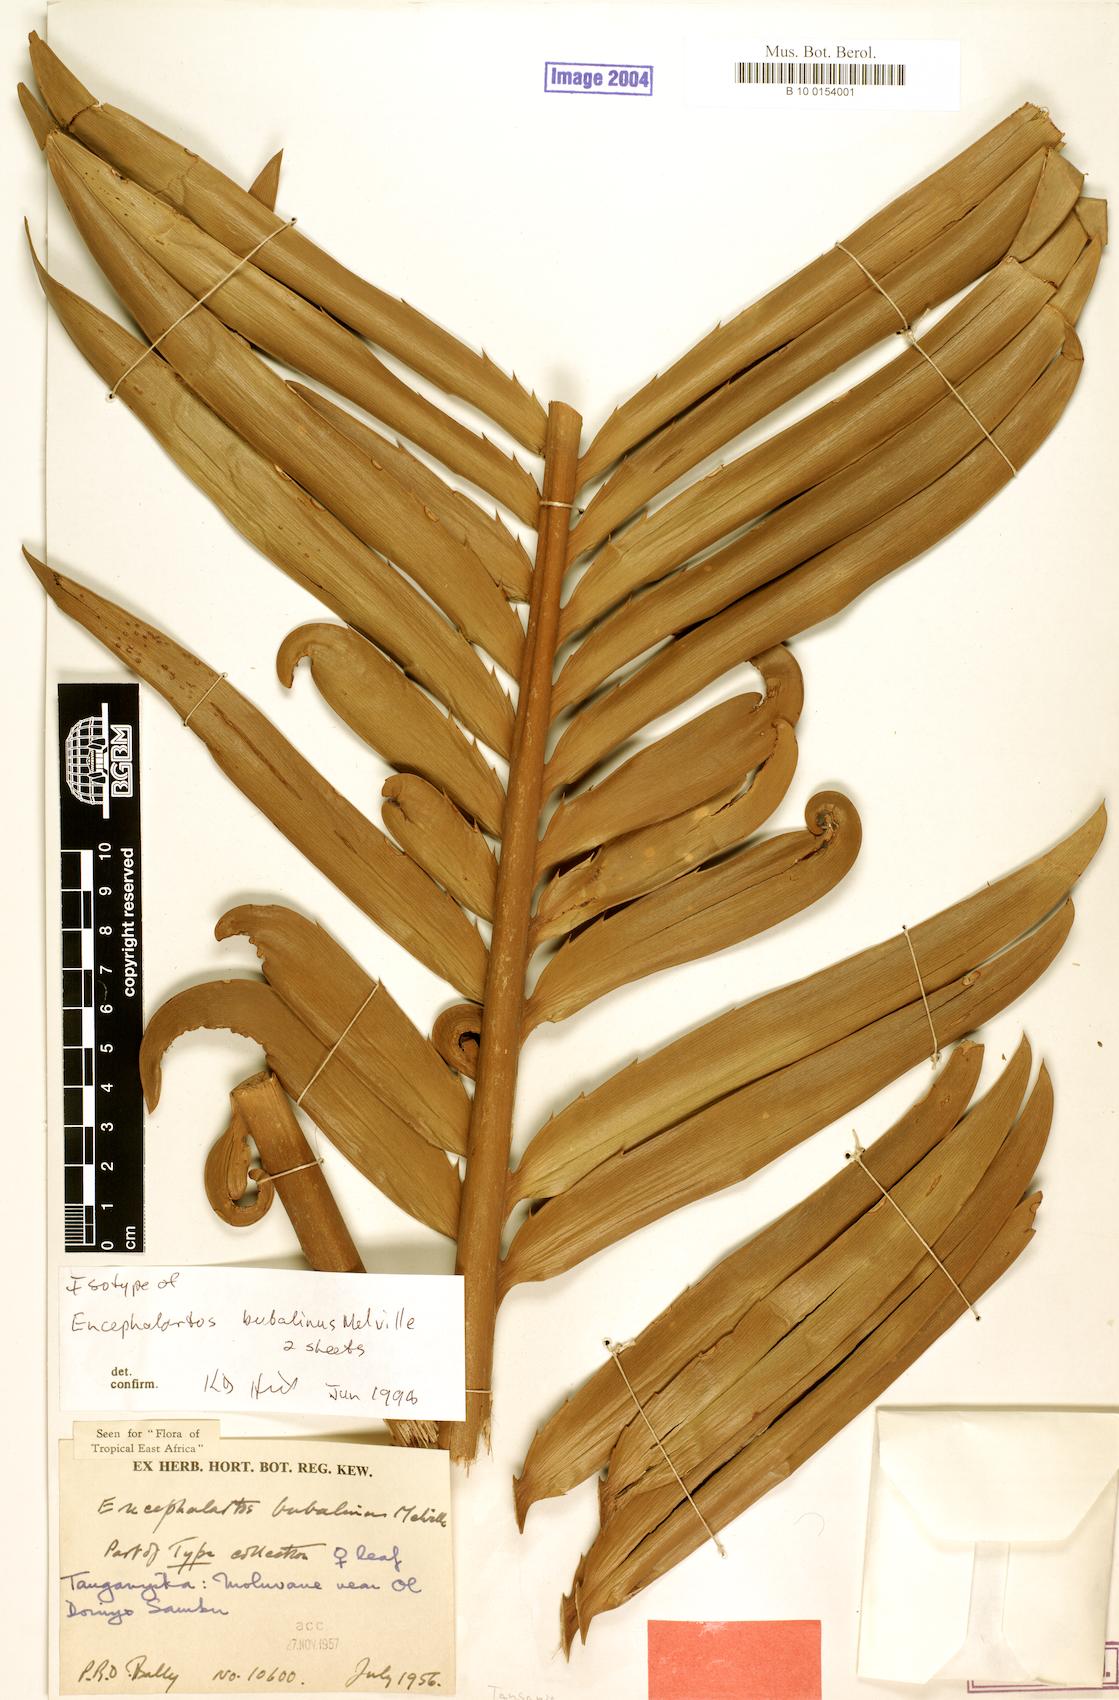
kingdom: Plantae
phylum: Tracheophyta
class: Cycadopsida
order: Cycadales
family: Zamiaceae
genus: Encephalartos
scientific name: Encephalartos bubalinus
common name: Lake natron cycad
